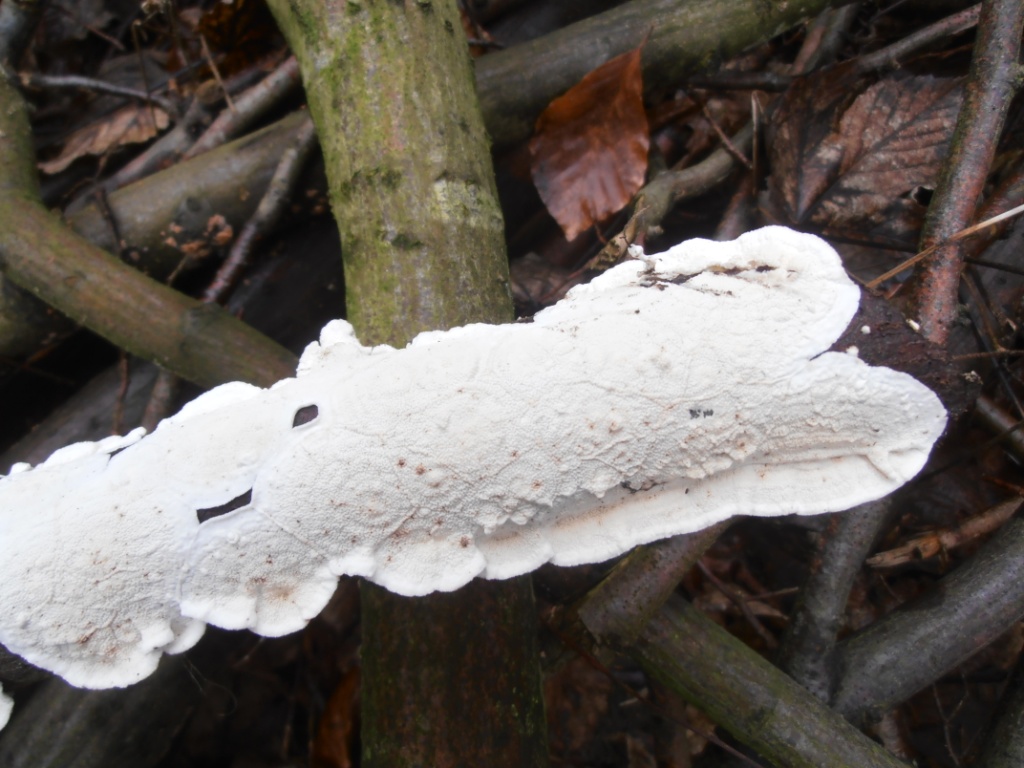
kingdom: Fungi
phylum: Basidiomycota
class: Agaricomycetes
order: Polyporales
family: Irpicaceae
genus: Byssomerulius
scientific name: Byssomerulius corium
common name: læder-åresvamp
